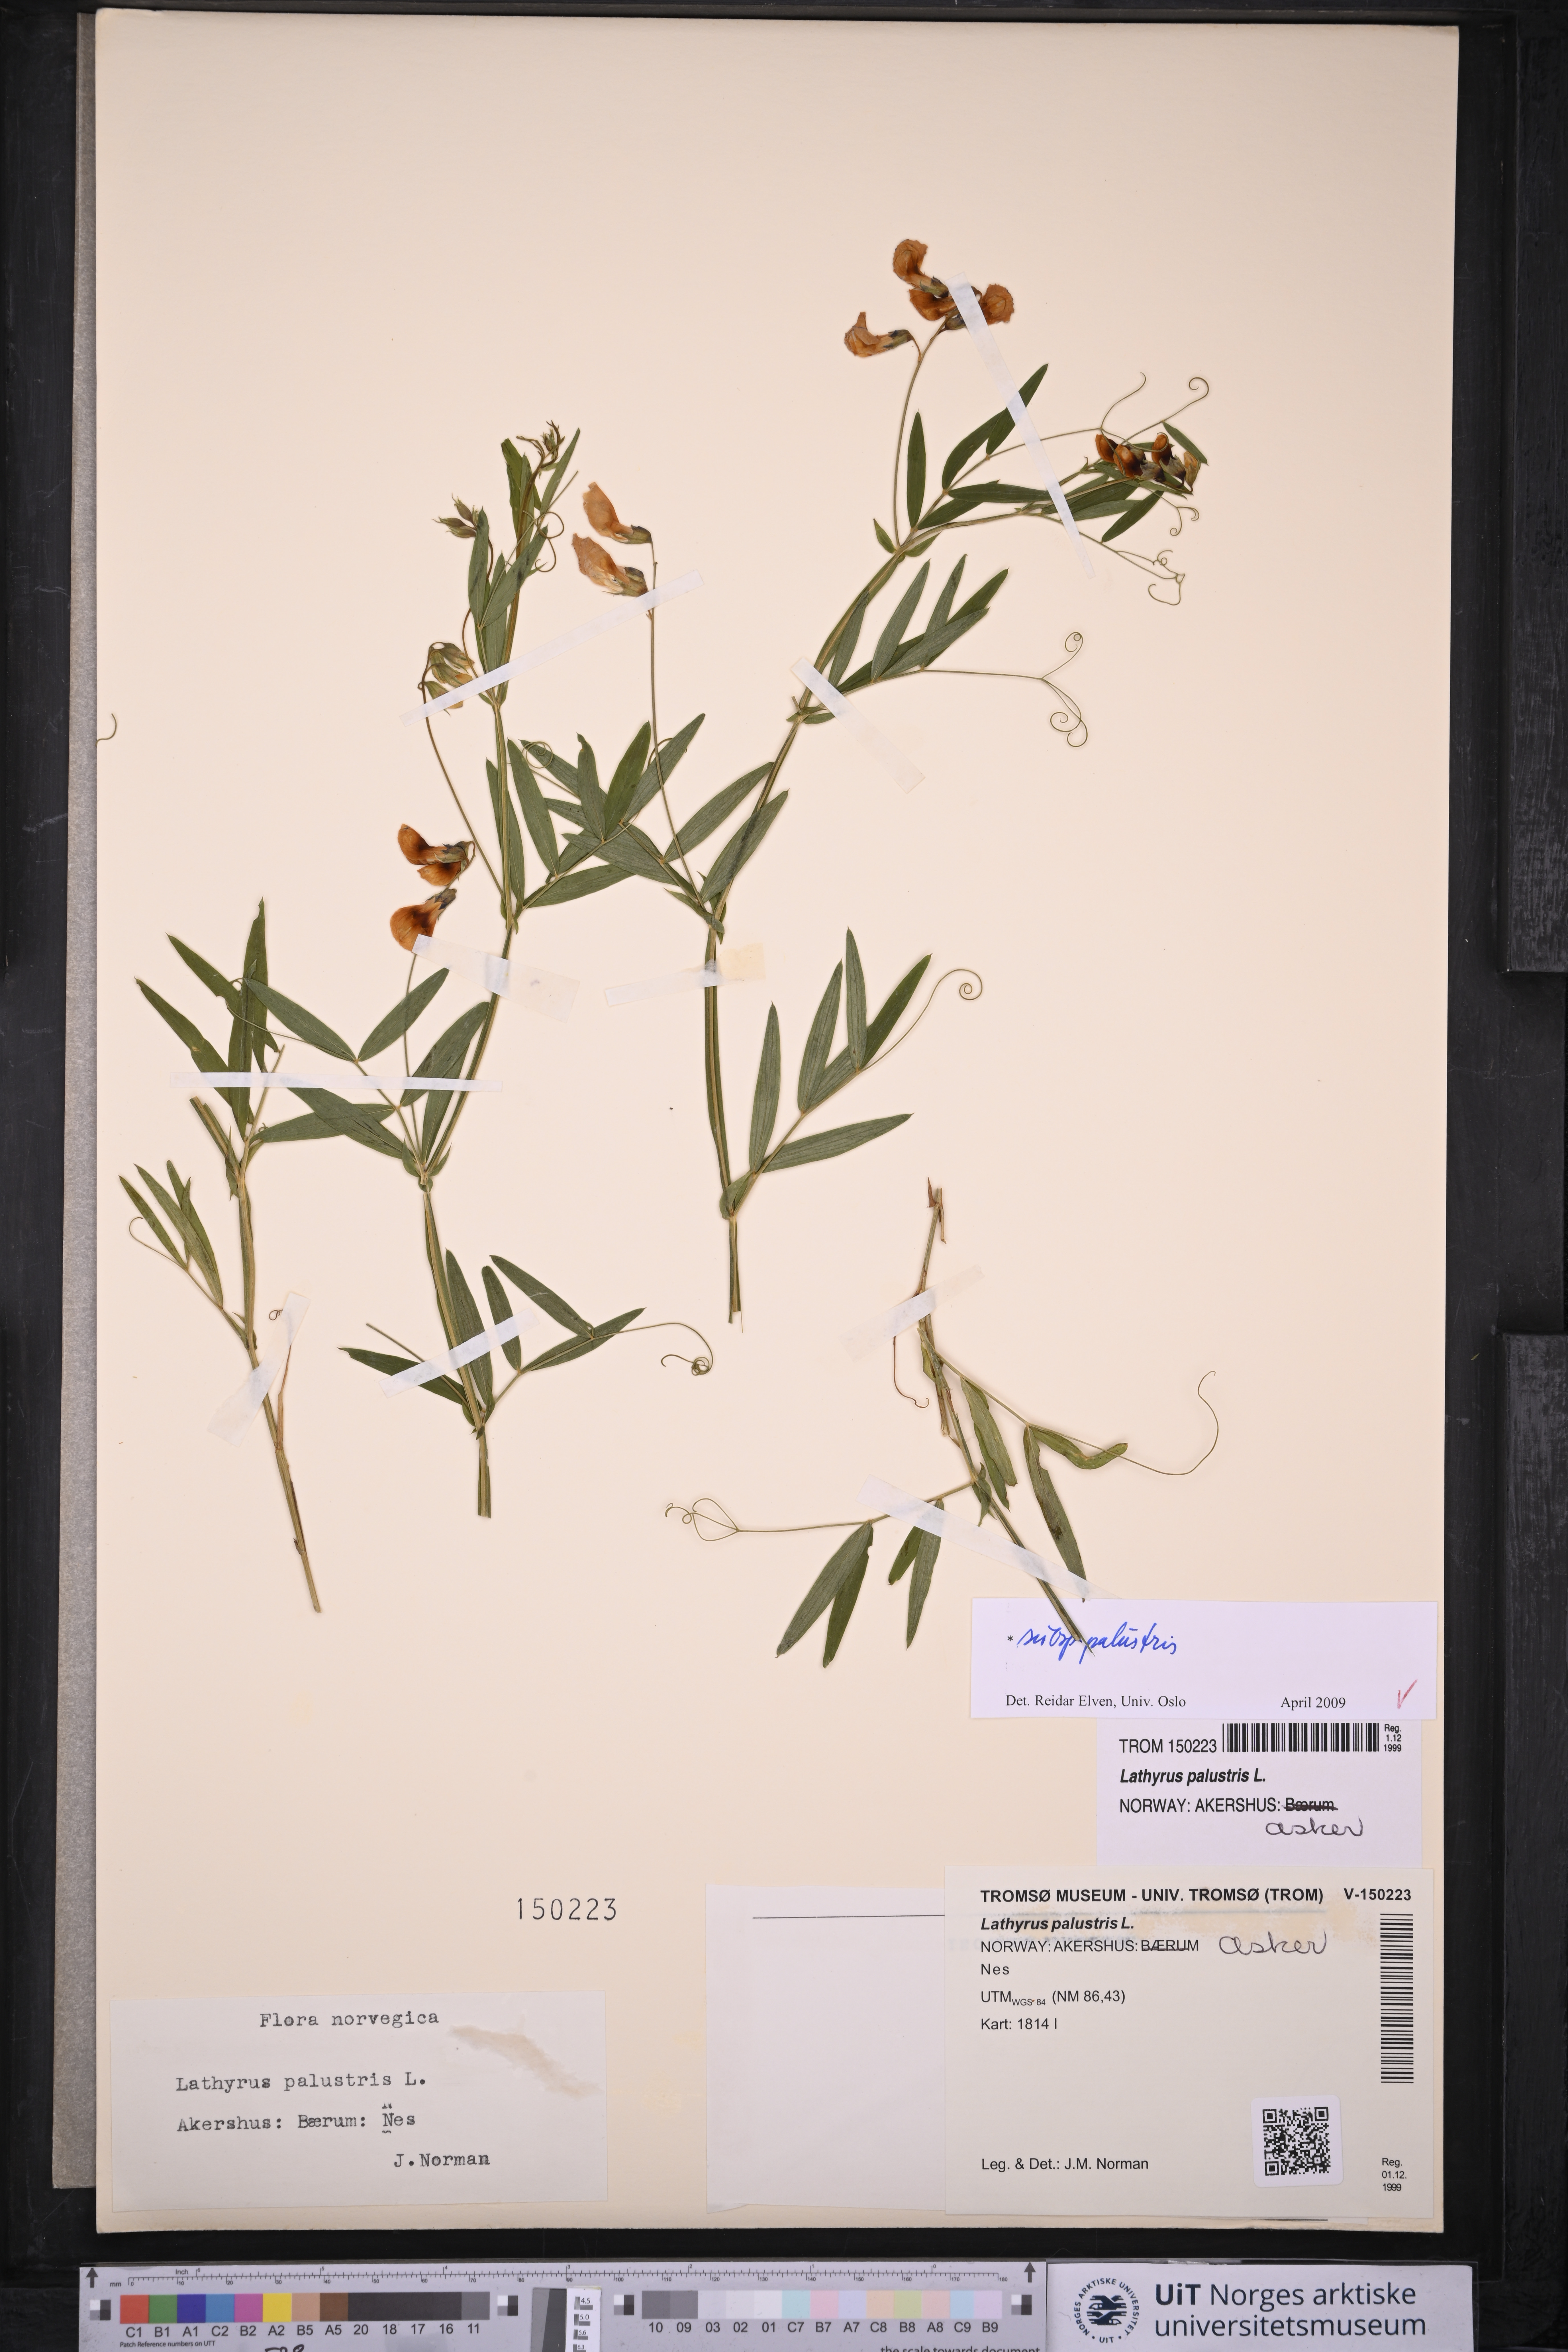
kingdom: Plantae
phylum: Tracheophyta
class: Magnoliopsida
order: Fabales
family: Fabaceae
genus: Lathyrus
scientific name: Lathyrus palustris
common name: Marsh pea
